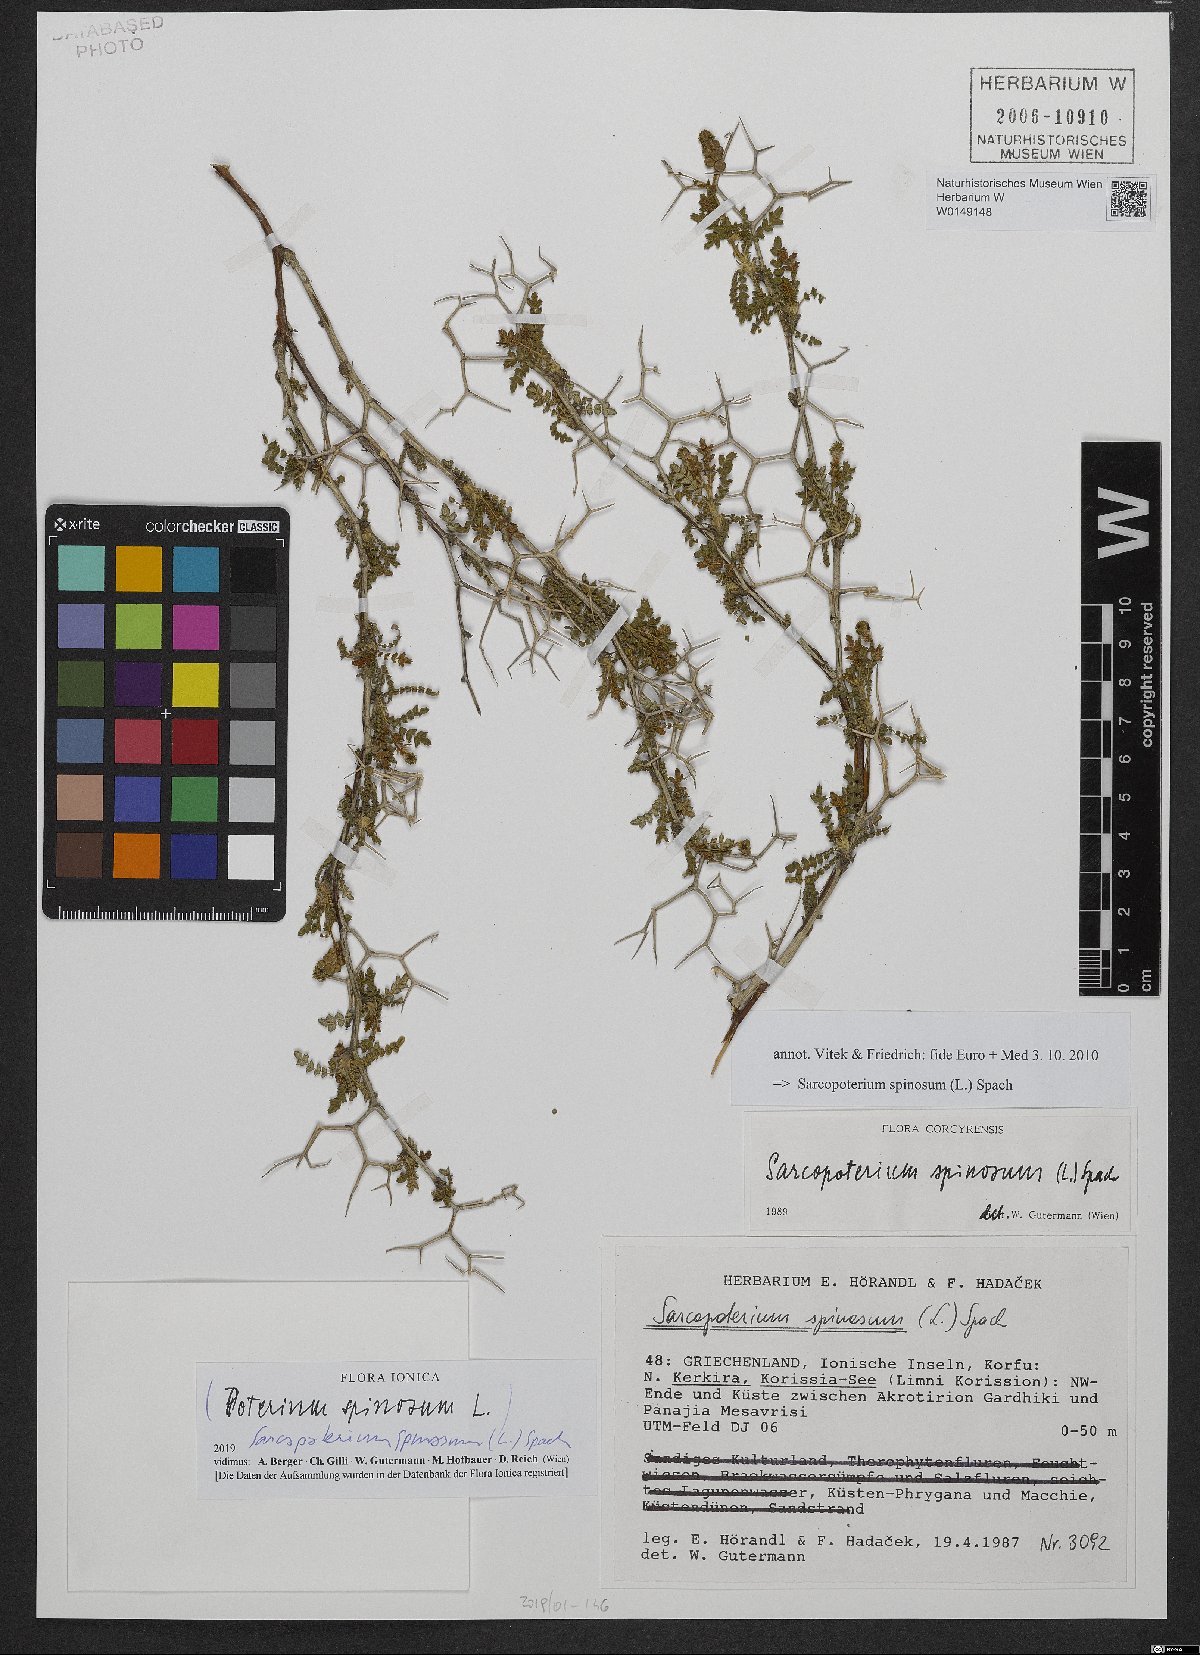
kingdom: Plantae
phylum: Tracheophyta
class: Magnoliopsida
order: Rosales
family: Rosaceae
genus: Sarcopoterium
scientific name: Sarcopoterium spinosum
